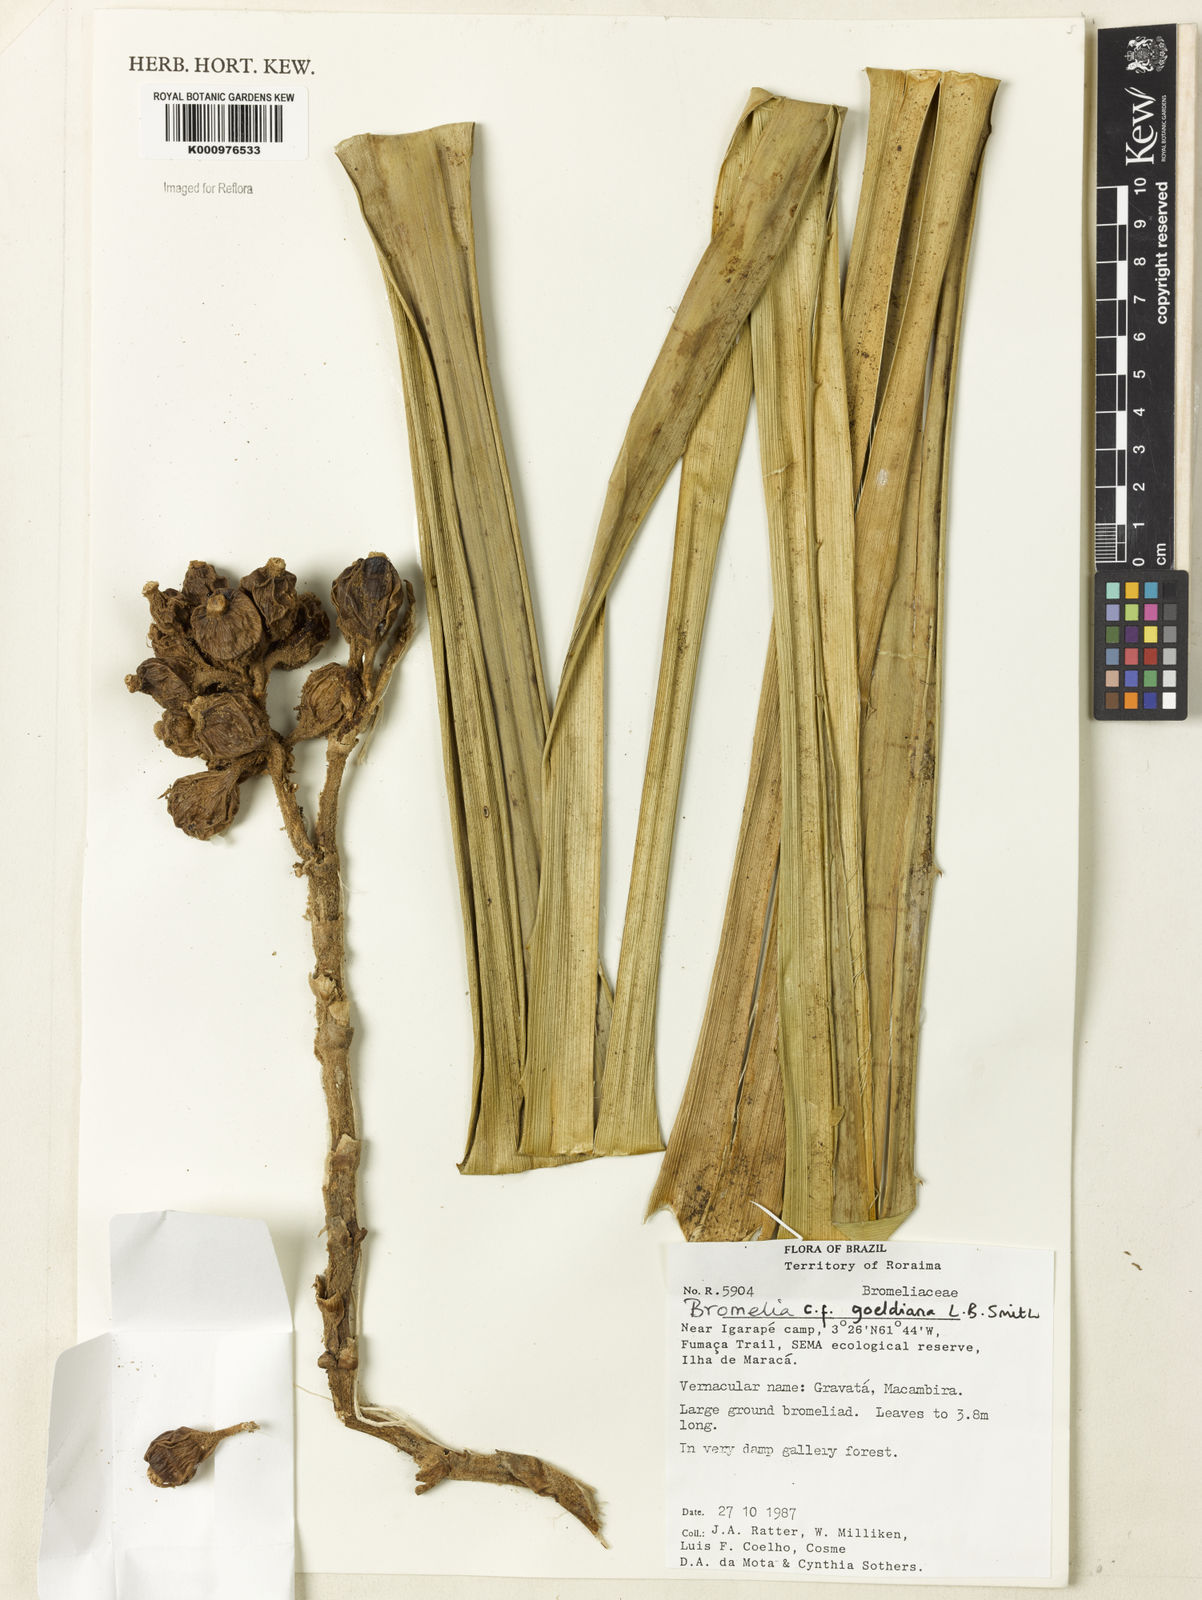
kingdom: Plantae
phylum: Tracheophyta
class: Liliopsida
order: Poales
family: Bromeliaceae
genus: Bromelia
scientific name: Bromelia goeldiana
